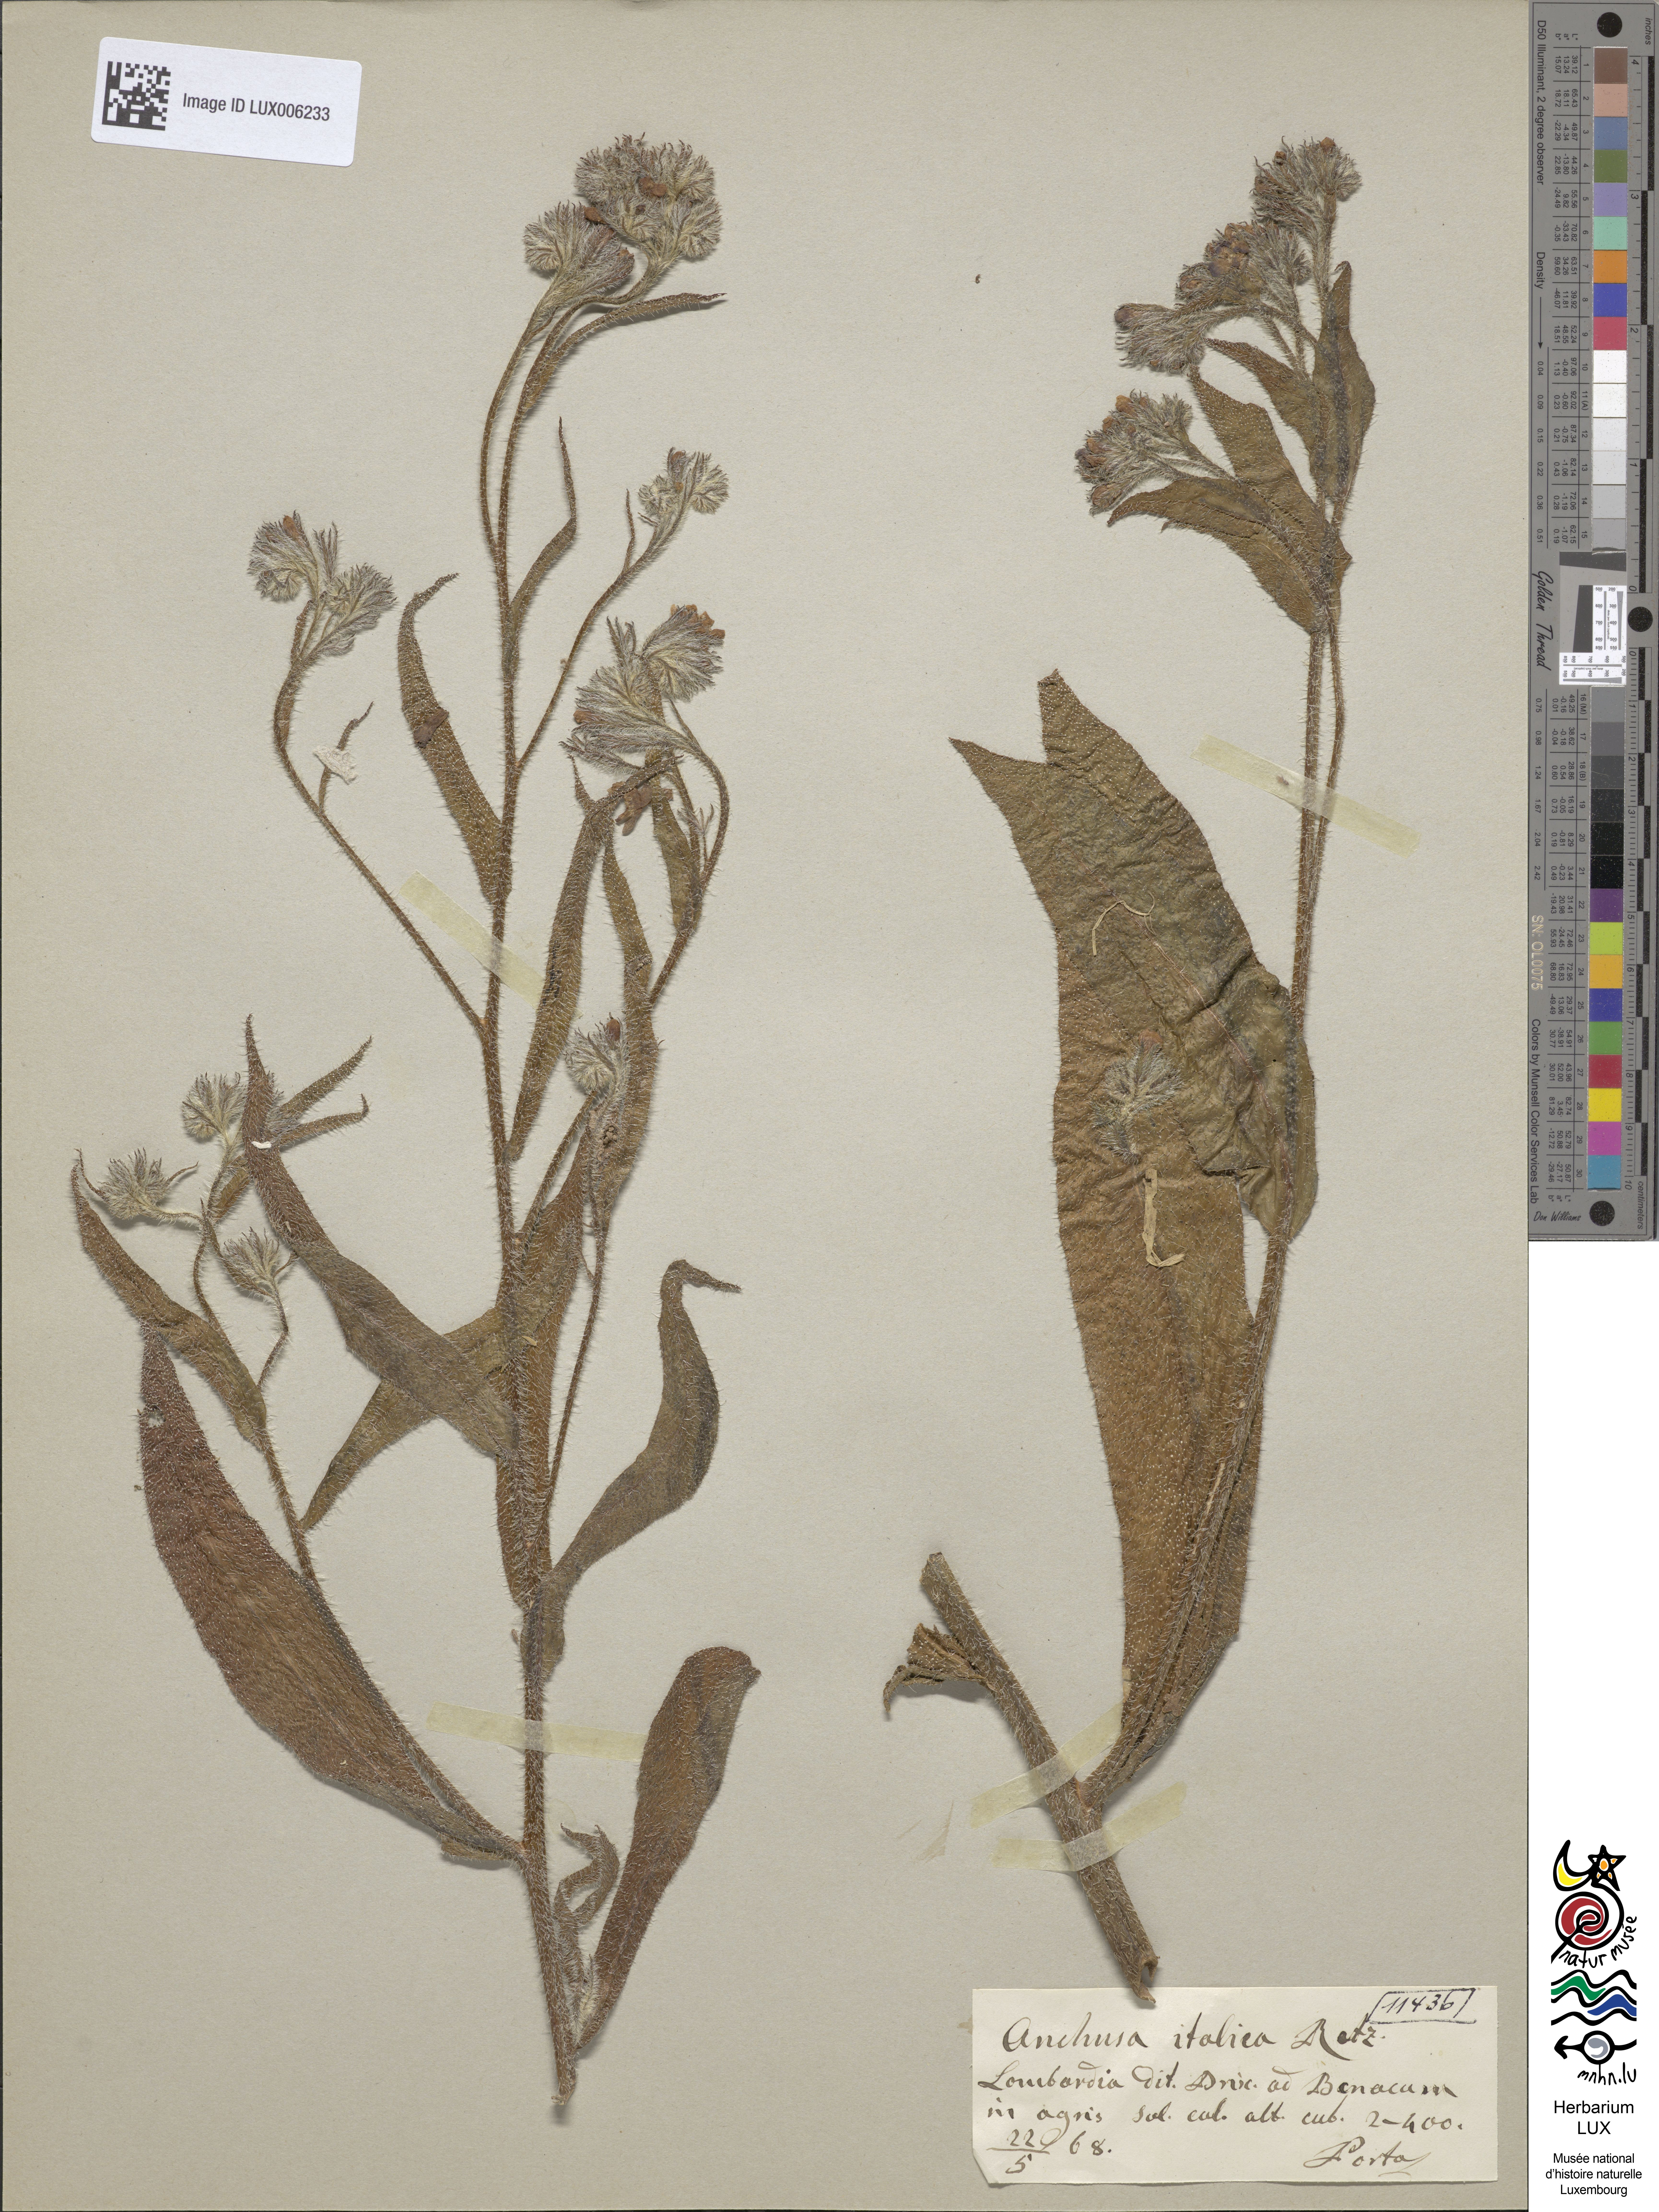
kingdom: Plantae
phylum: Tracheophyta
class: Magnoliopsida
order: Boraginales
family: Boraginaceae
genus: Anchusa
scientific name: Anchusa azurea
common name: Garden anchusa
